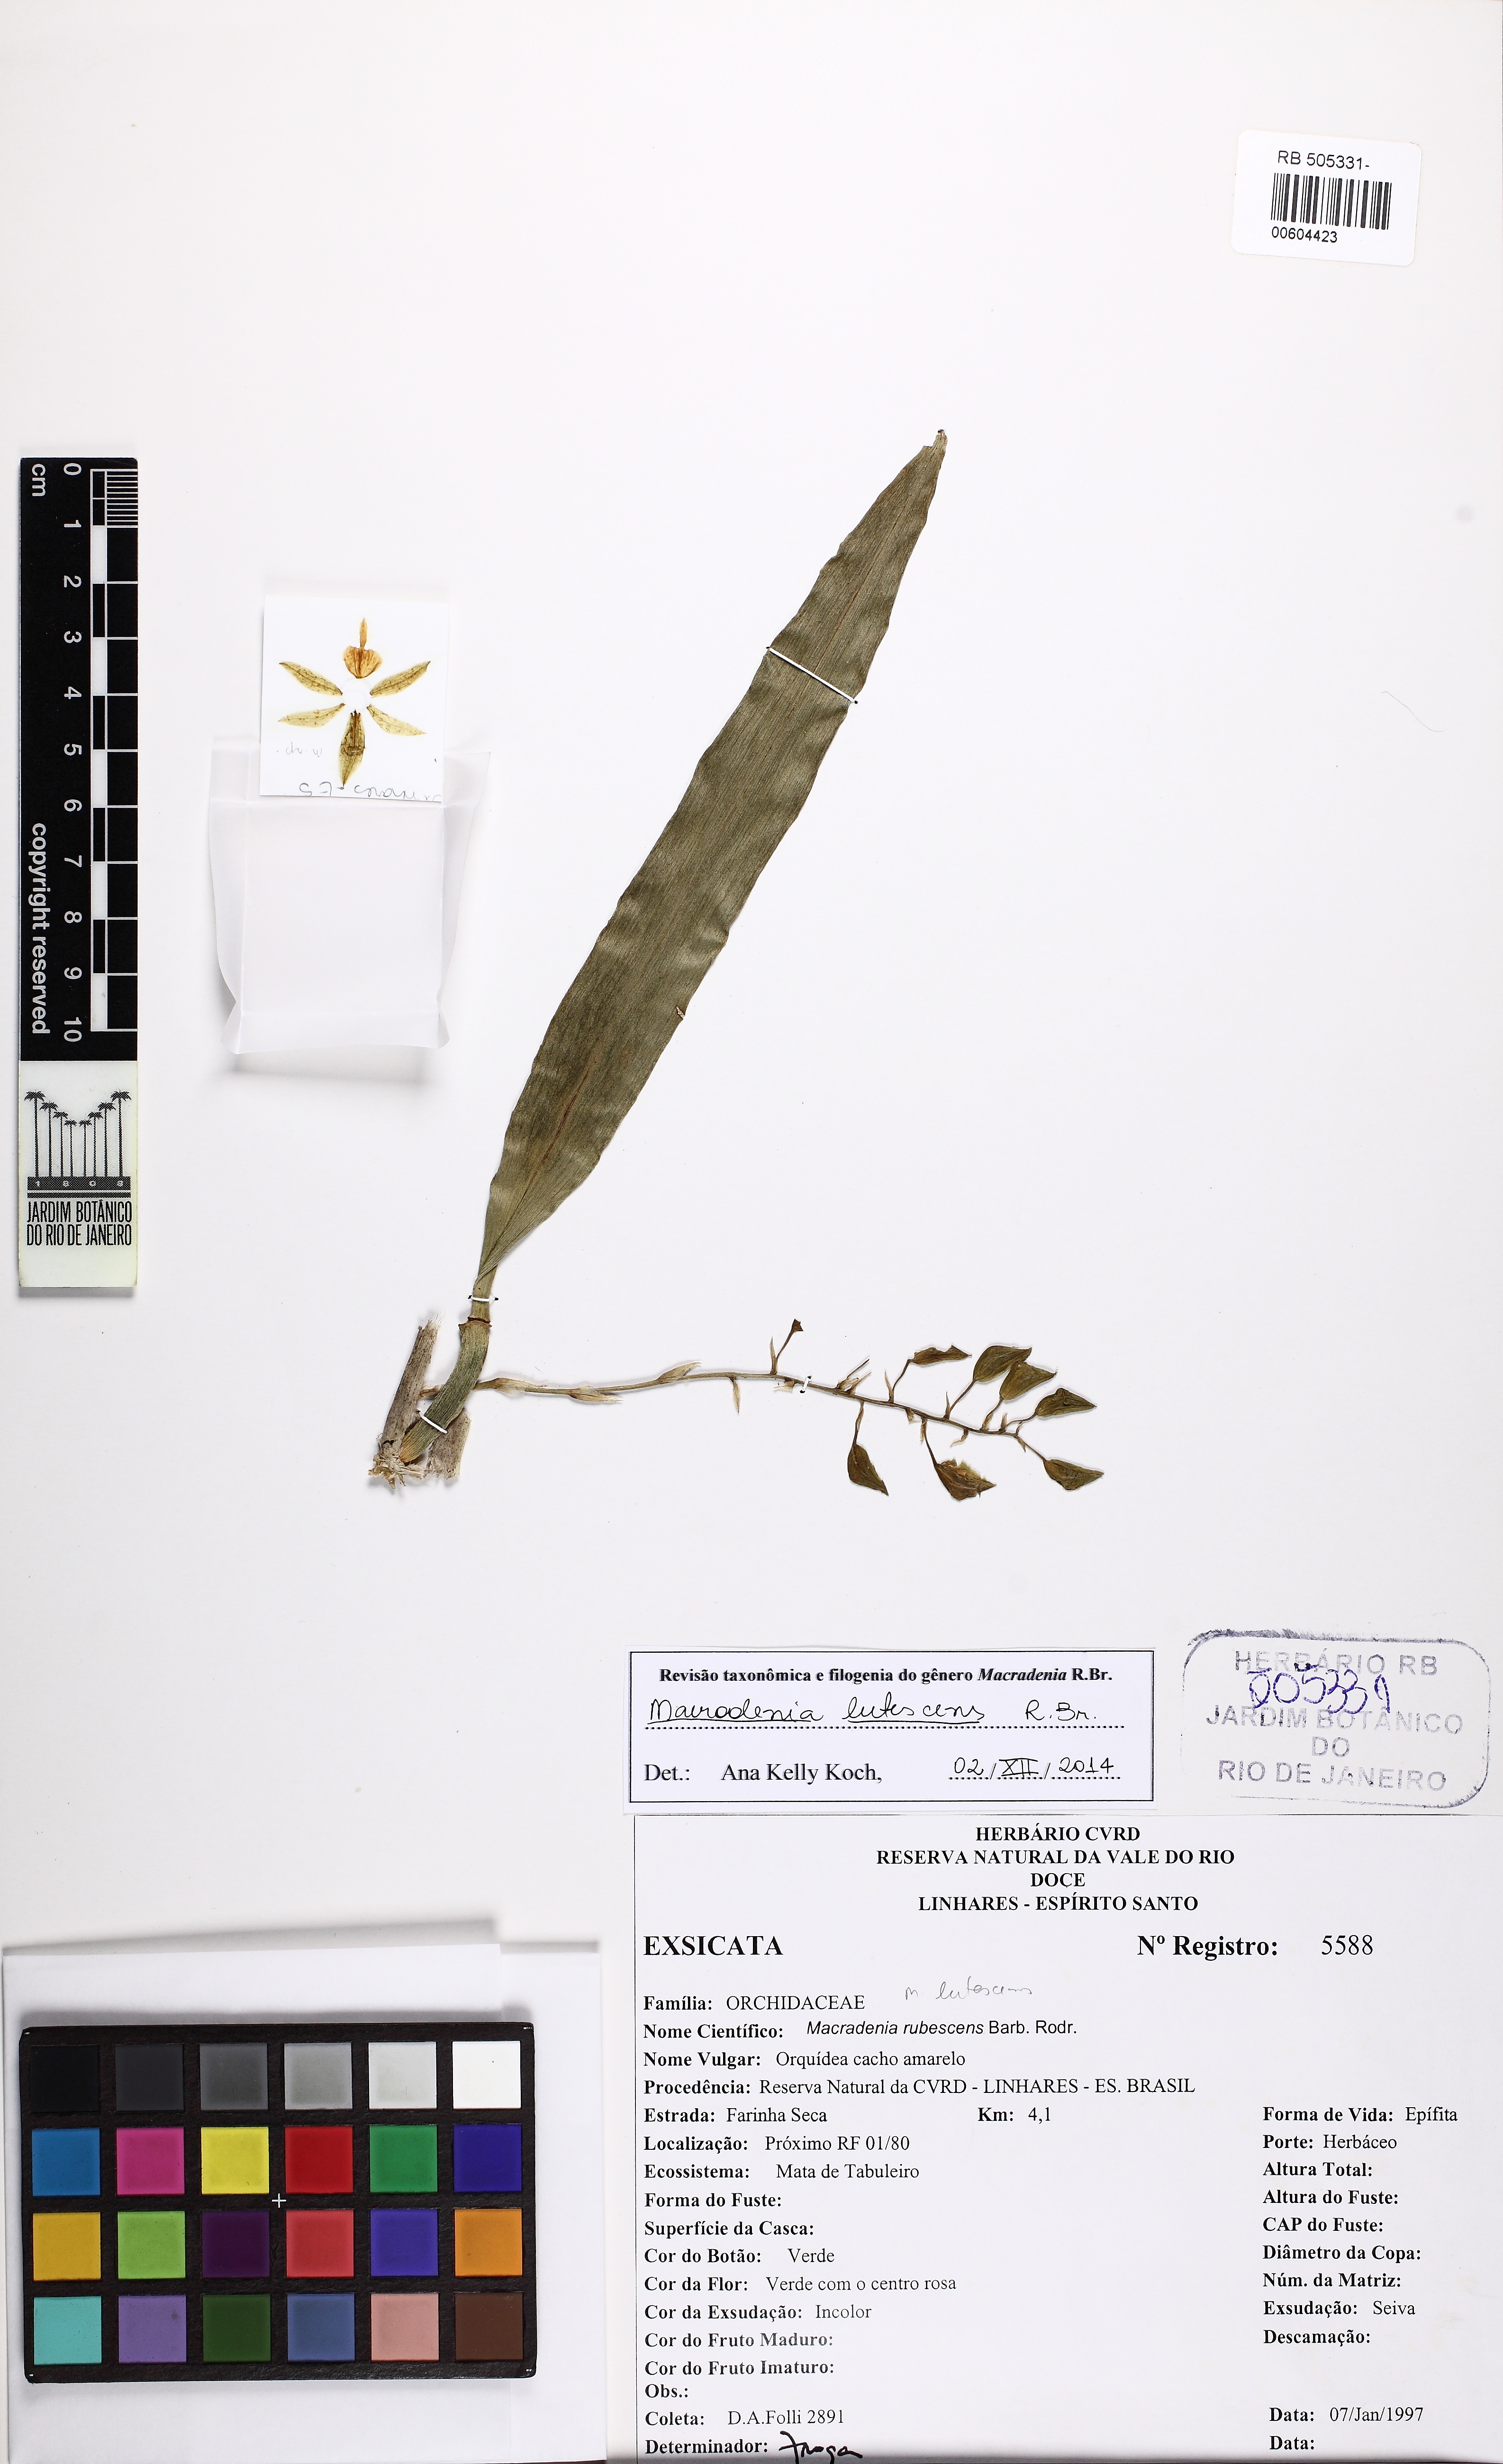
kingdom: Plantae
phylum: Tracheophyta
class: Liliopsida
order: Asparagales
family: Orchidaceae
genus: Macradenia
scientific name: Macradenia lutescens
